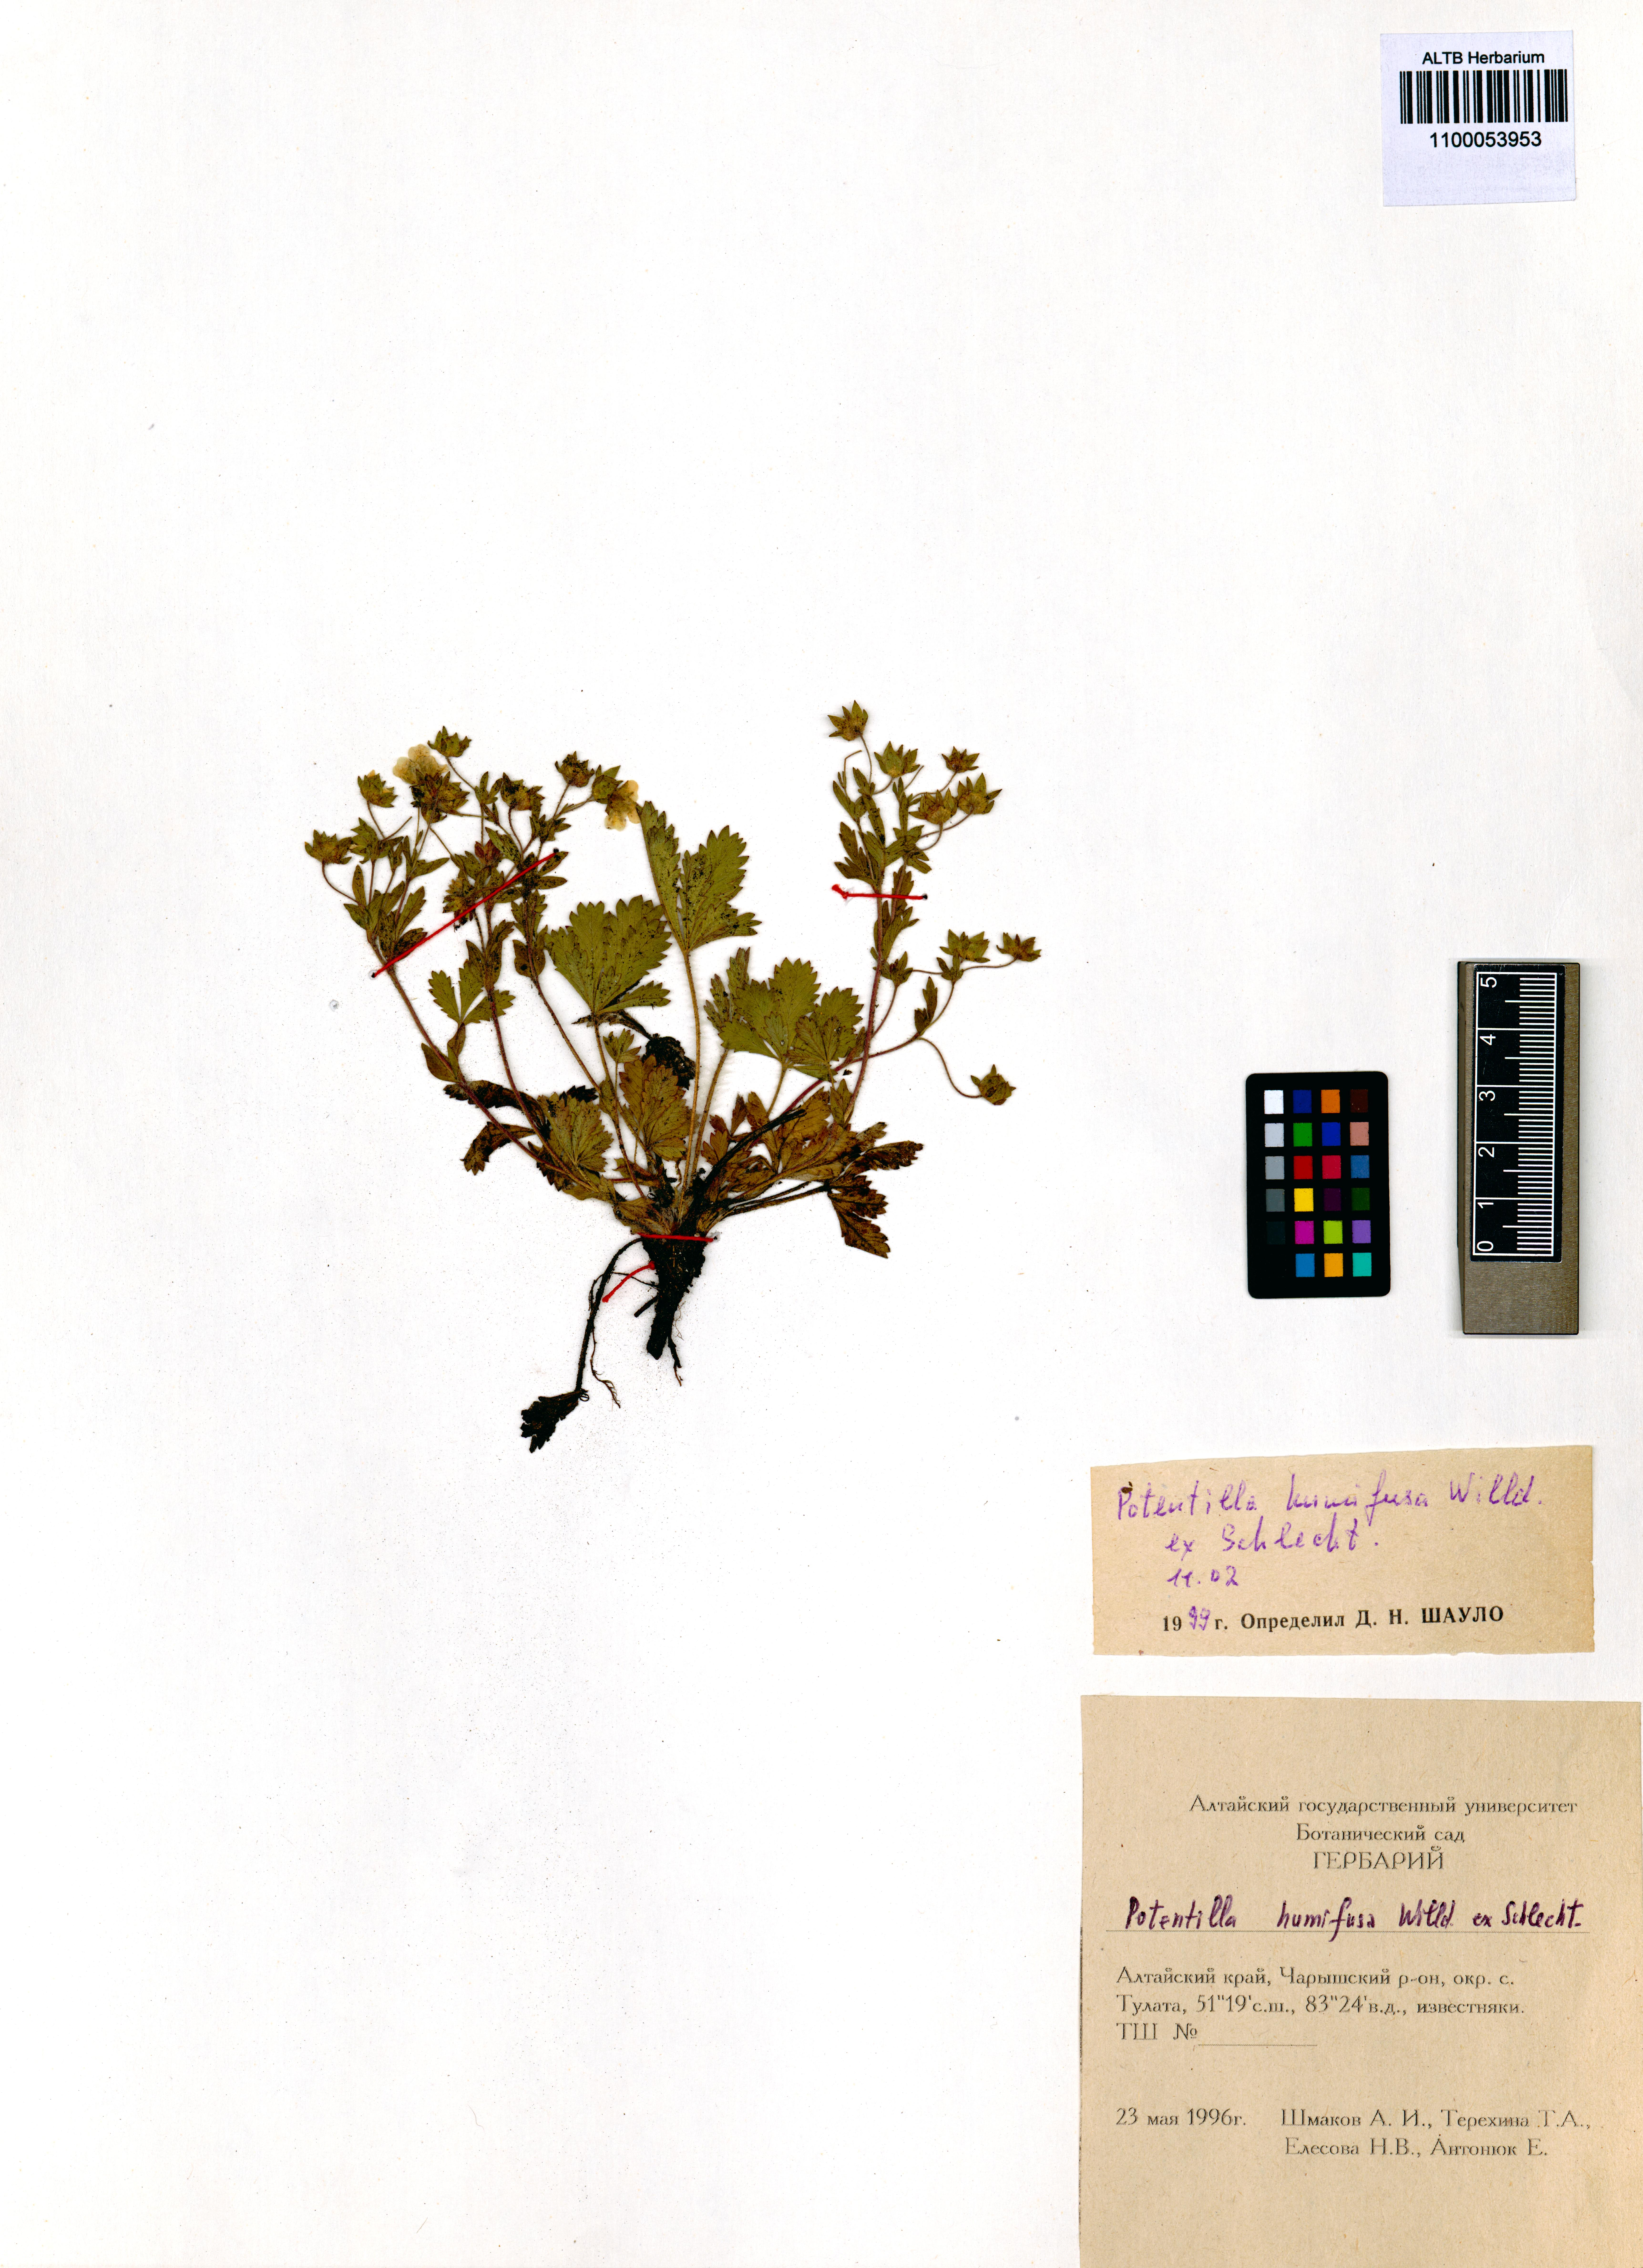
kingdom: Plantae
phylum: Tracheophyta
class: Magnoliopsida
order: Rosales
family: Rosaceae
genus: Potentilla
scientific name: Potentilla humifusa
